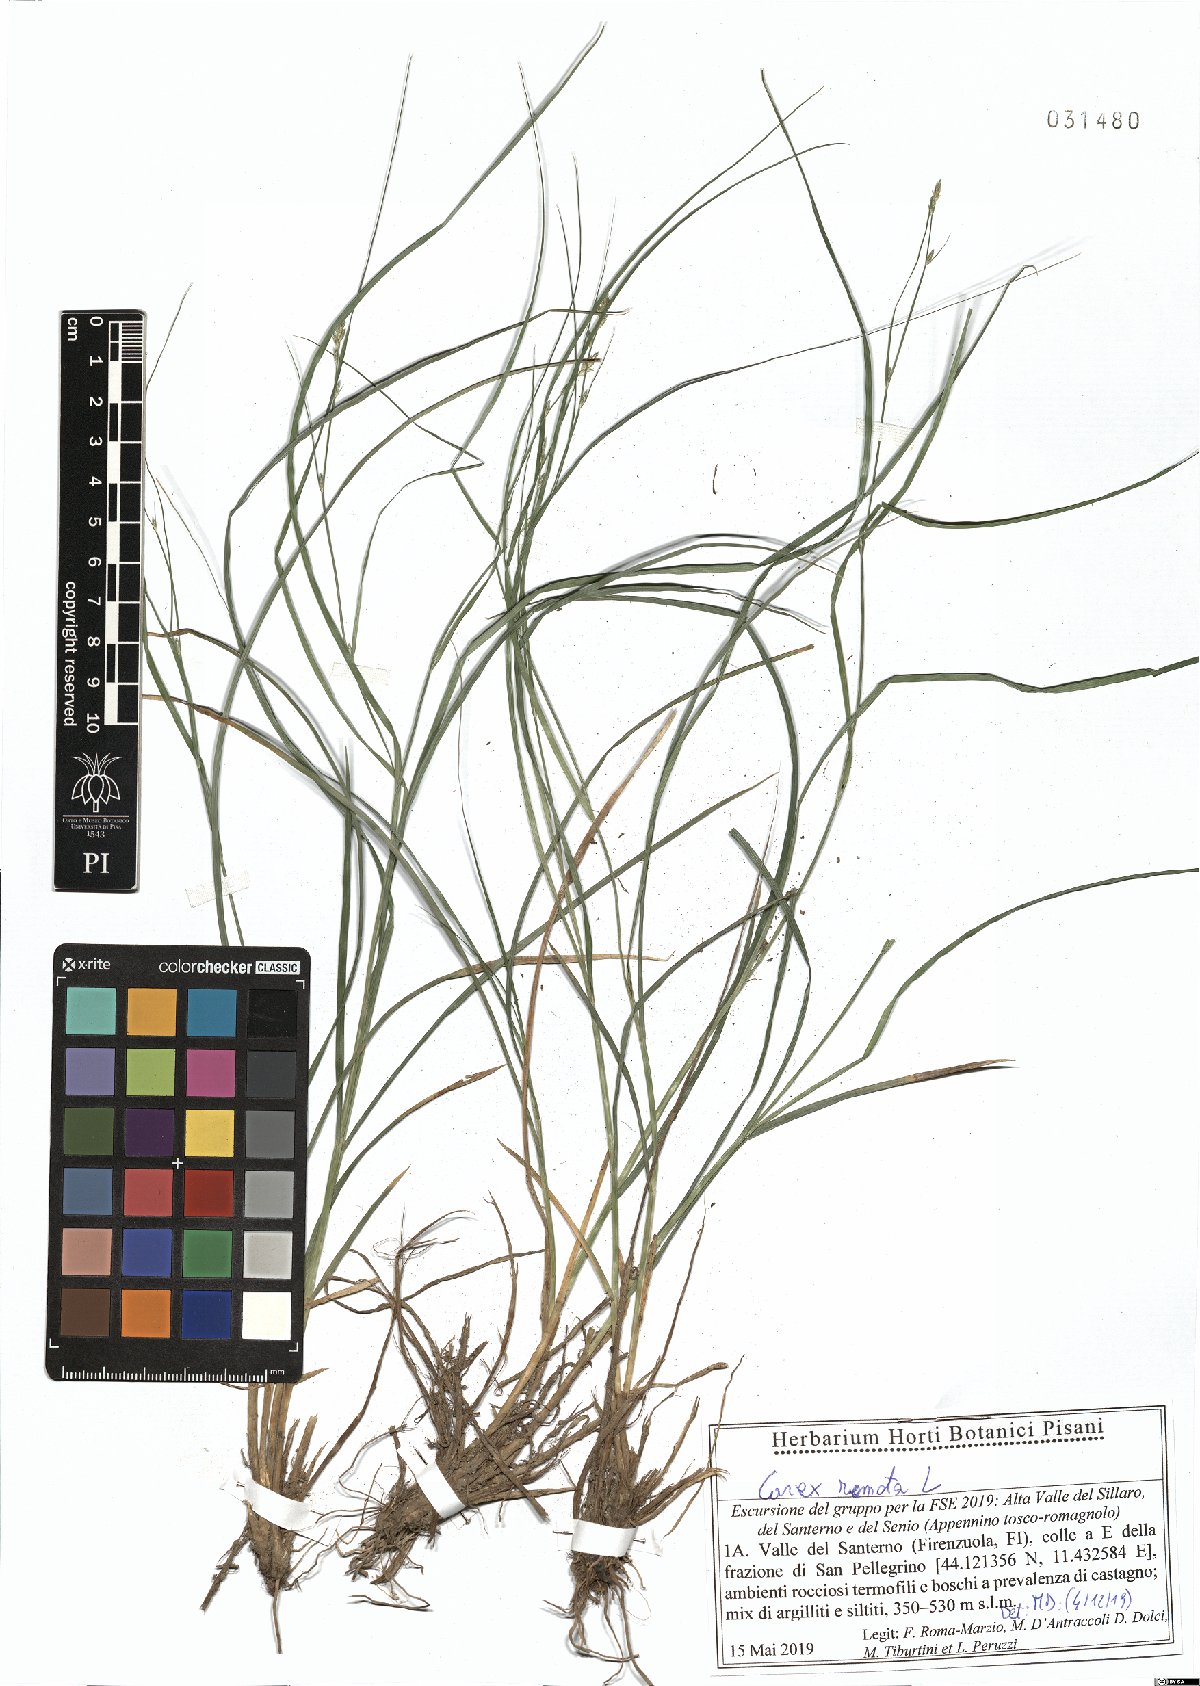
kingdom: Plantae
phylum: Tracheophyta
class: Liliopsida
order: Poales
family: Cyperaceae
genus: Carex
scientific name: Carex remota
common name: Remote sedge
